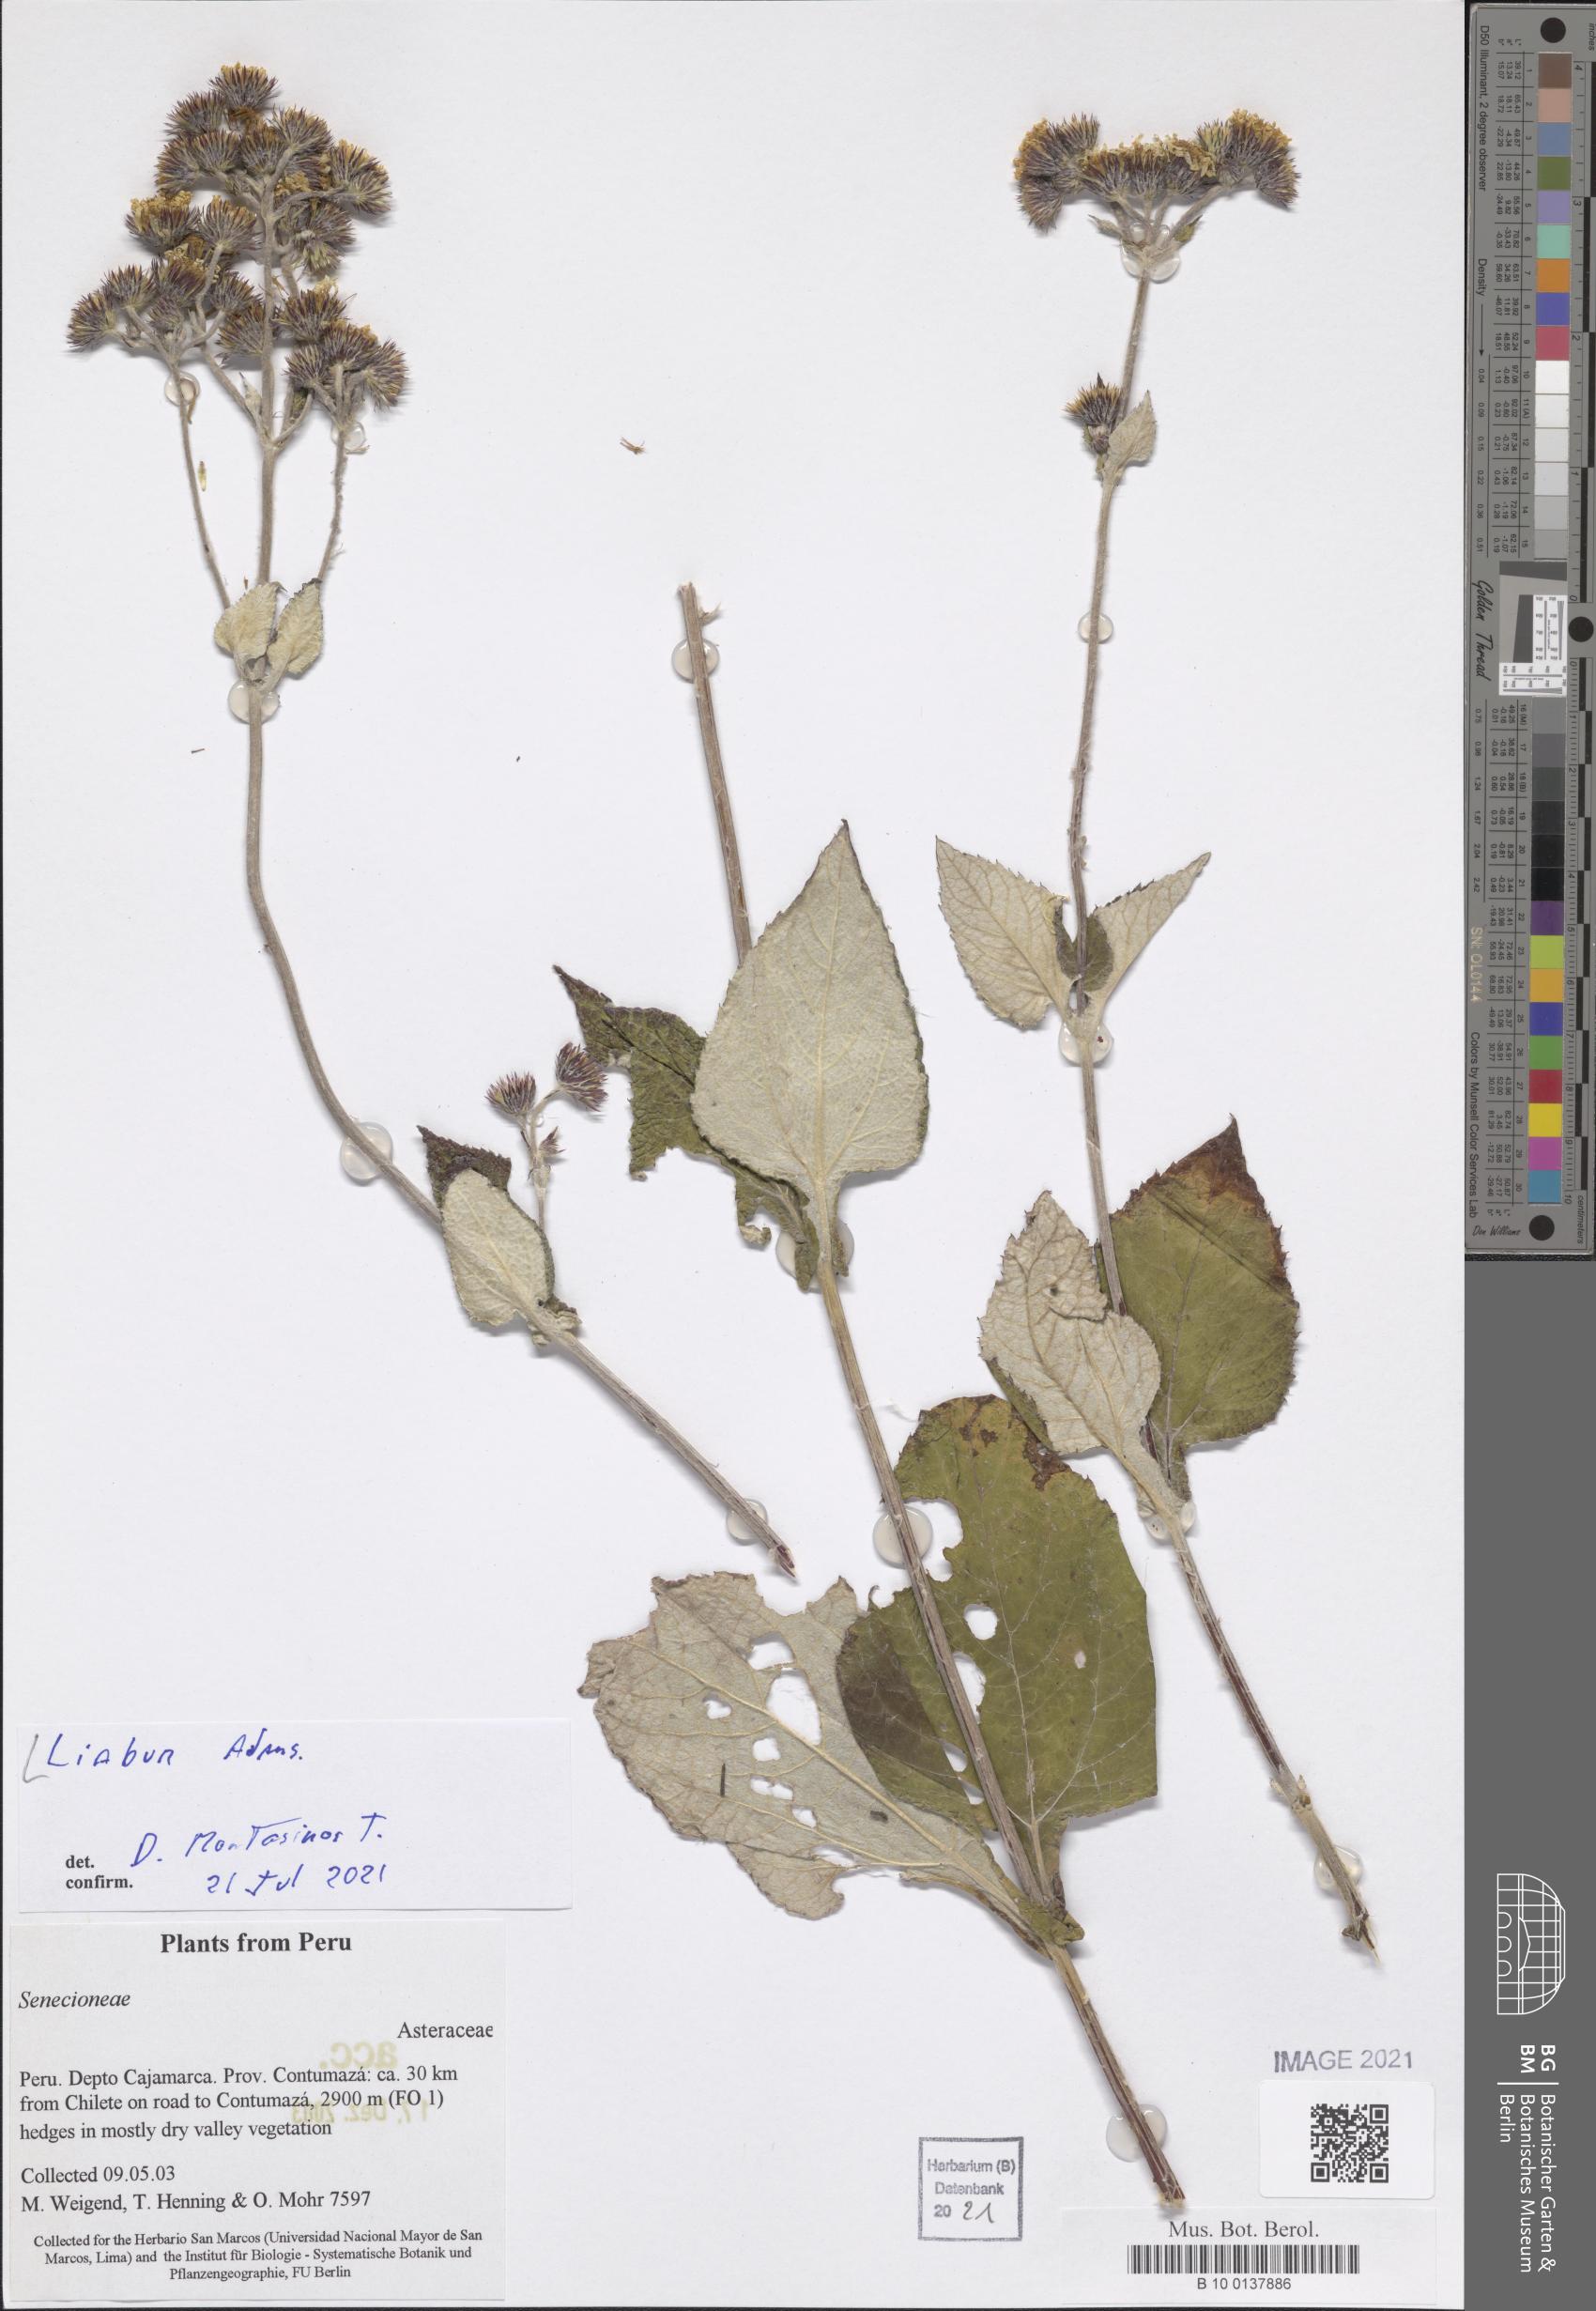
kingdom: Plantae
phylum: Tracheophyta
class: Magnoliopsida
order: Asterales
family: Asteraceae
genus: Liabum
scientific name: Liabum
